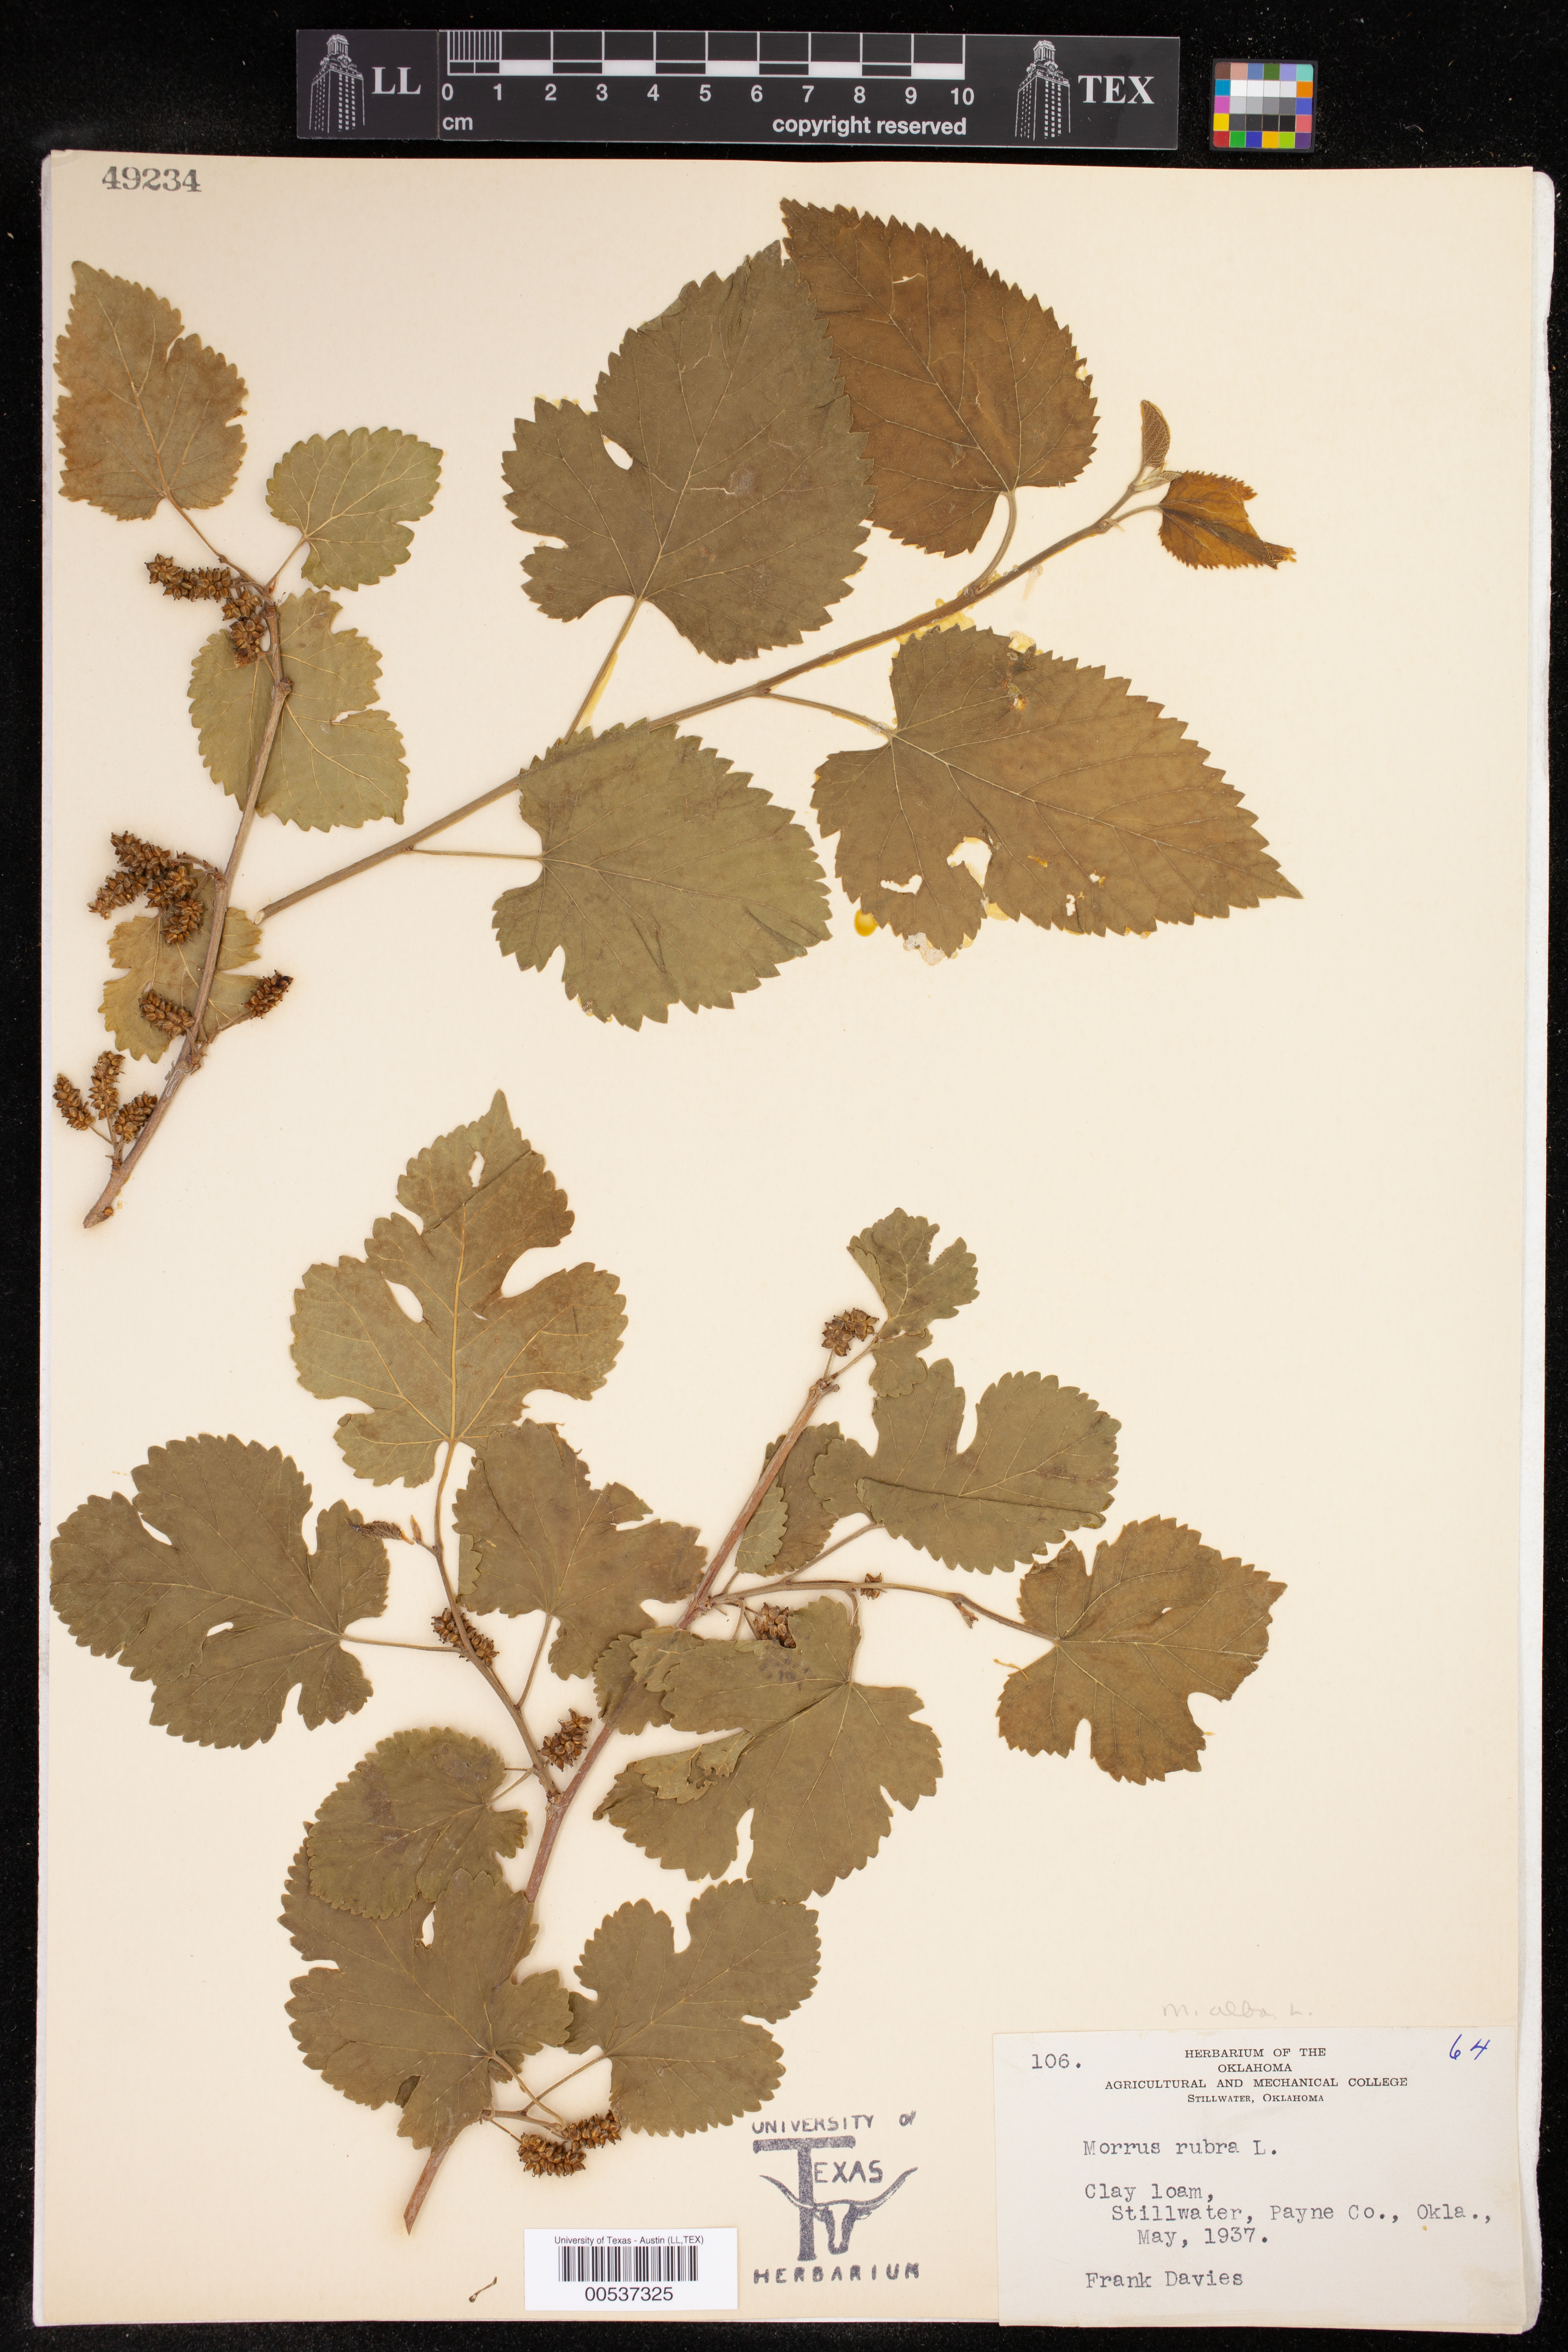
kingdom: Plantae
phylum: Tracheophyta
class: Magnoliopsida
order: Rosales
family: Moraceae
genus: Morus
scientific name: Morus alba
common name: White mulberry
